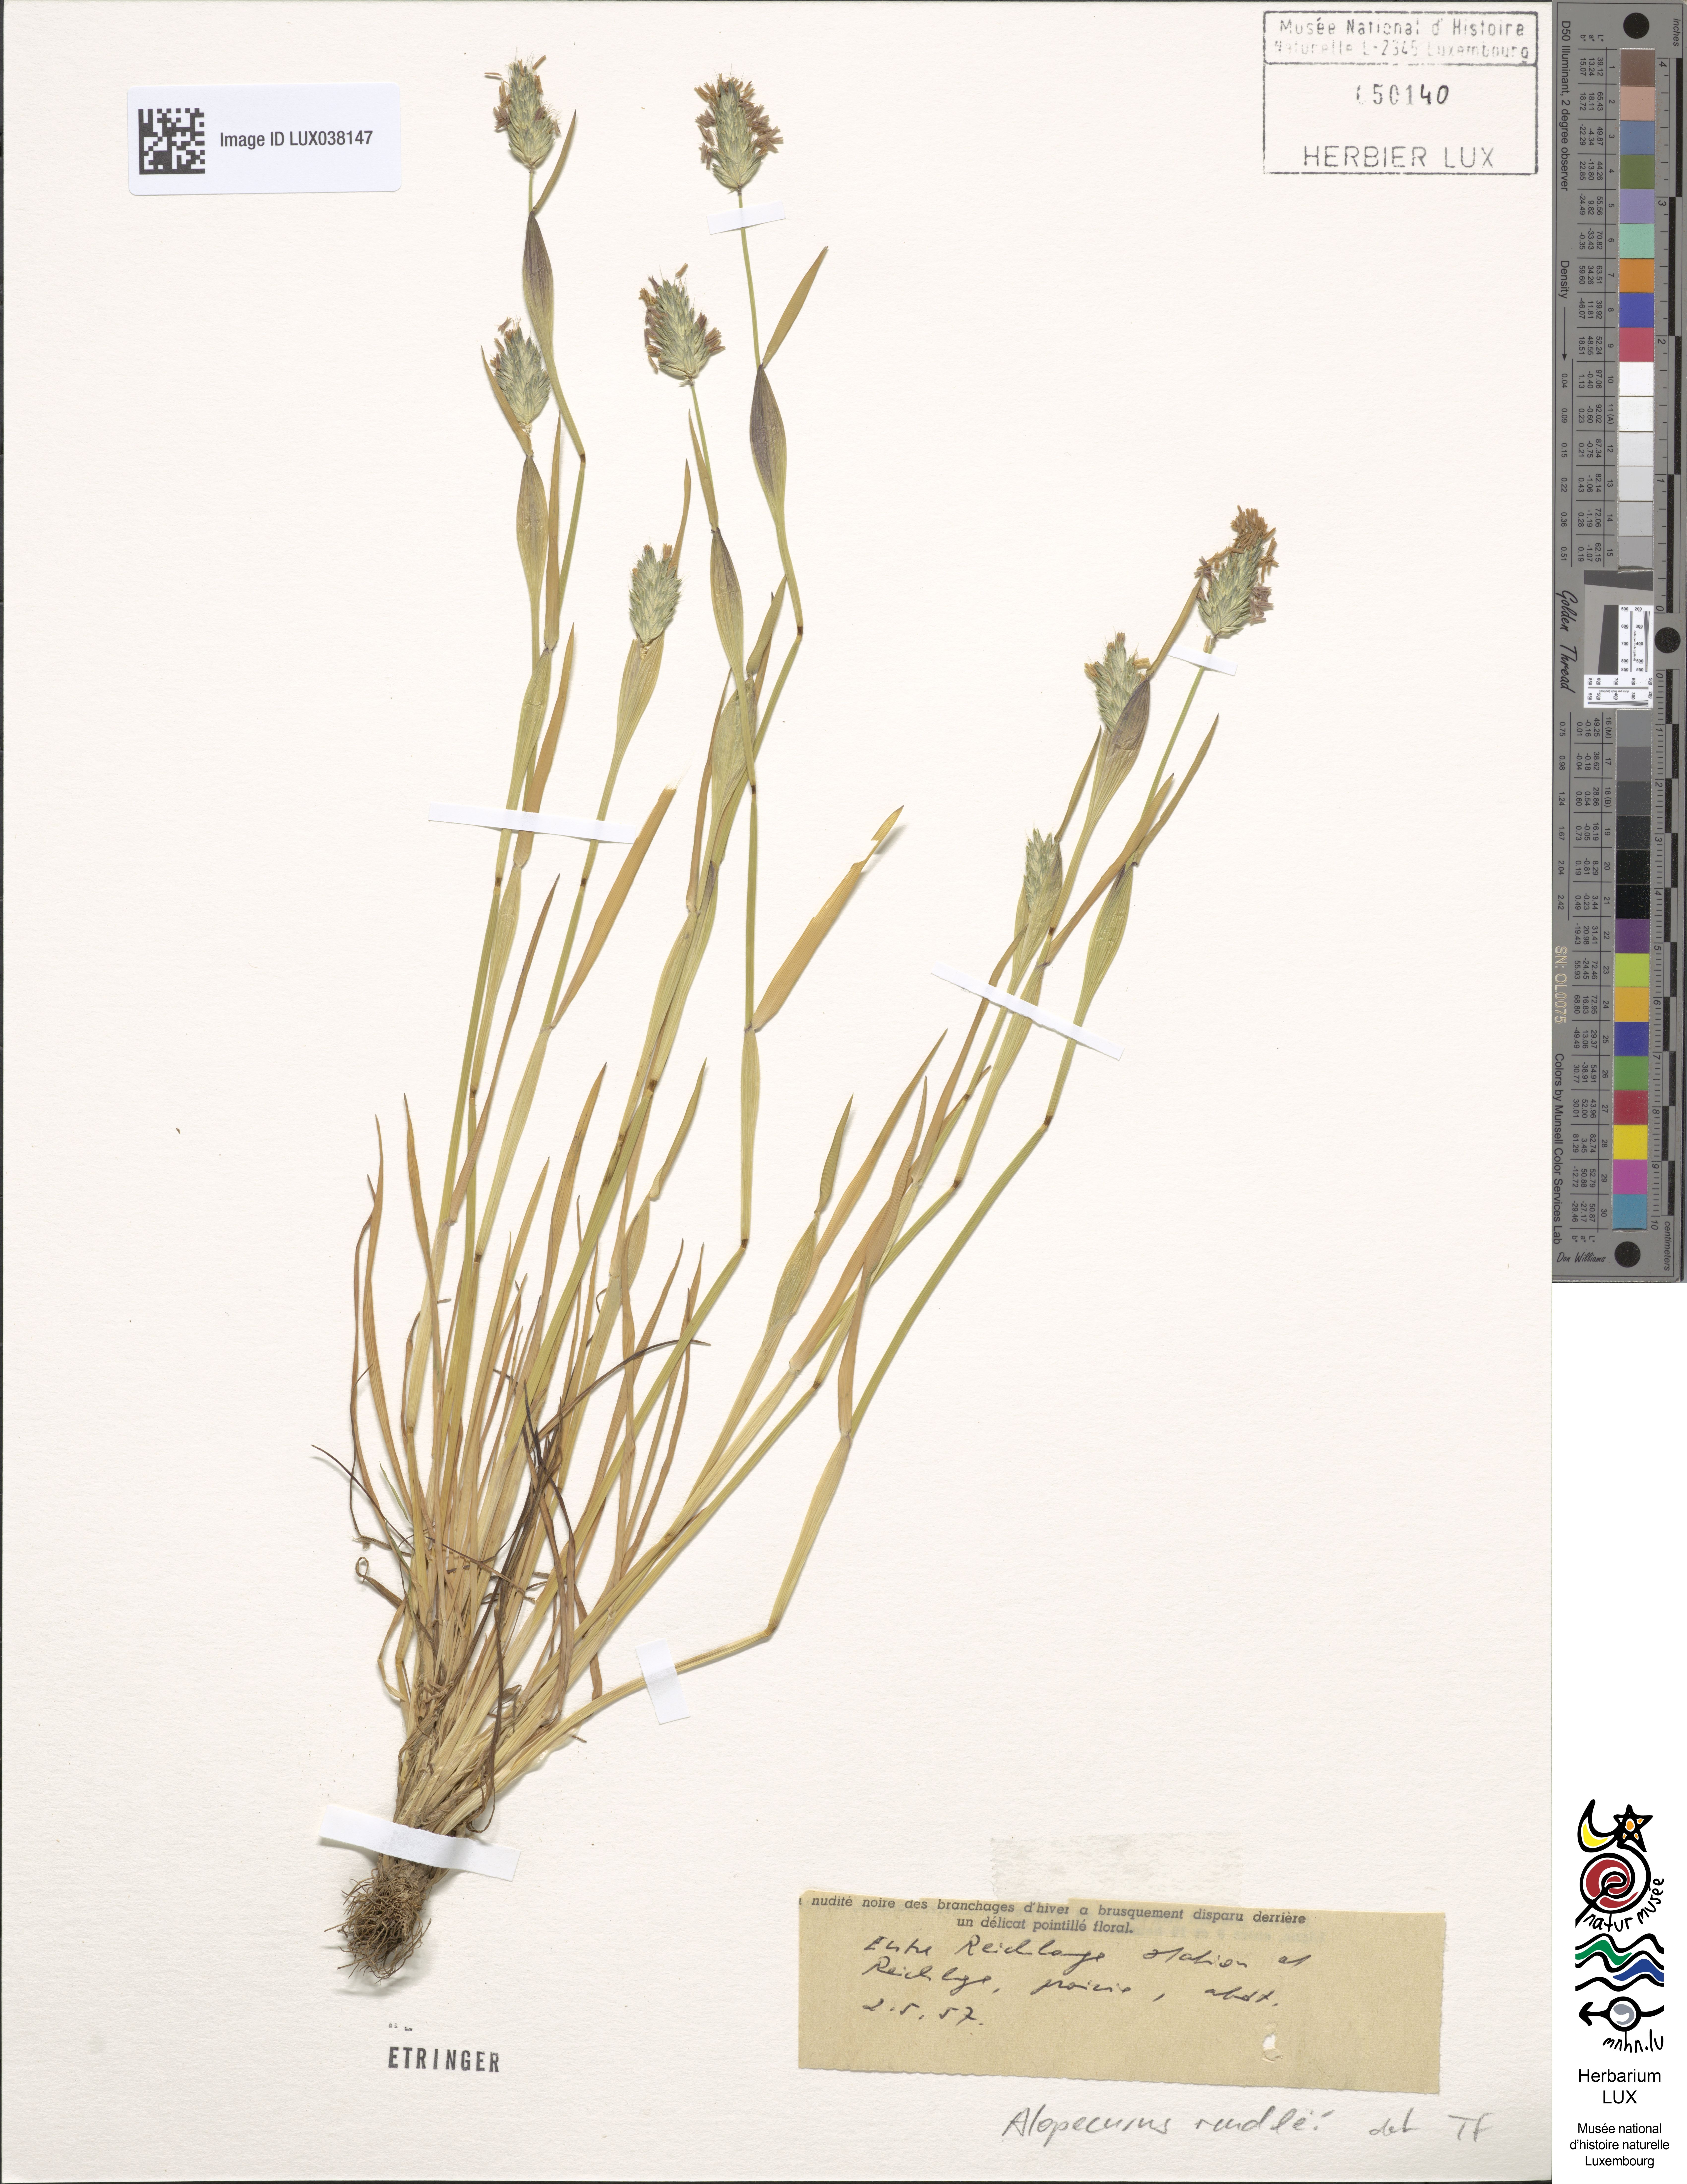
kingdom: Plantae
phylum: Tracheophyta
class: Liliopsida
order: Poales
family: Poaceae
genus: Alopecurus
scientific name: Alopecurus rendlei
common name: Rendle's meadow foxtail
